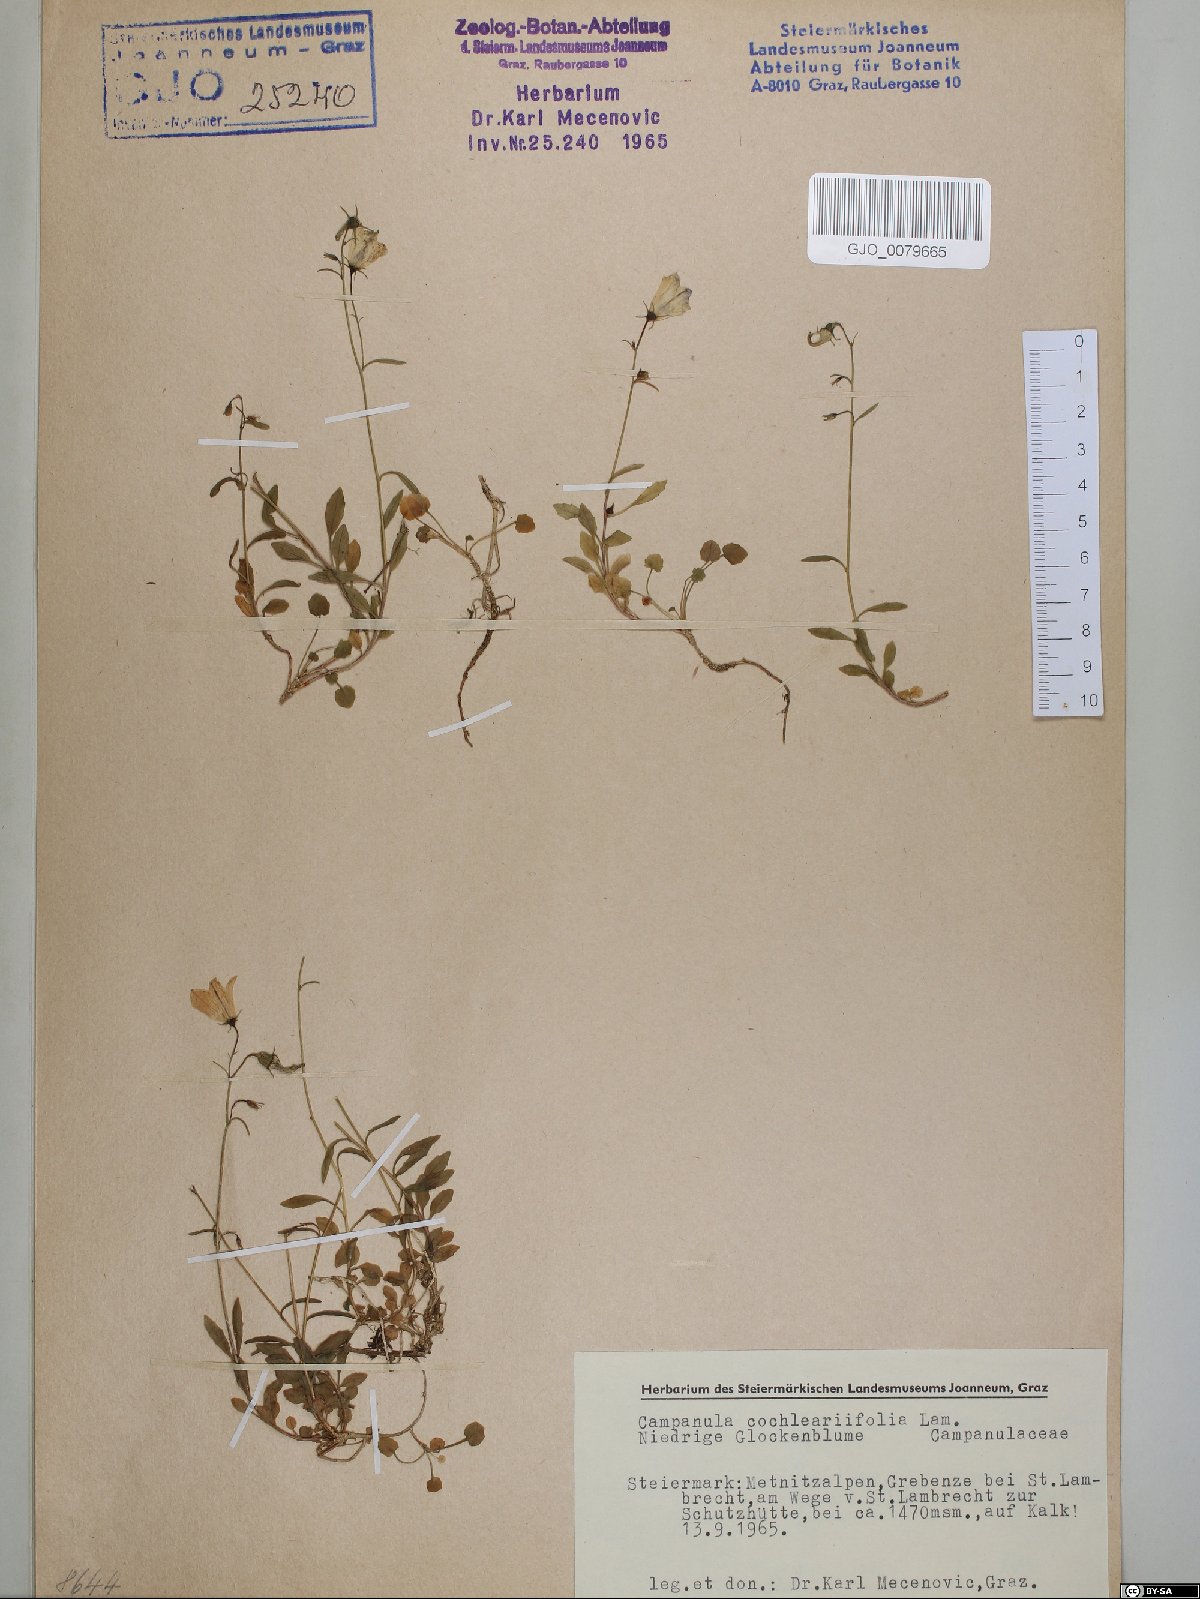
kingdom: Plantae
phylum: Tracheophyta
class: Magnoliopsida
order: Asterales
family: Campanulaceae
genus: Campanula
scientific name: Campanula cochleariifolia
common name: Fairies'-thimbles
